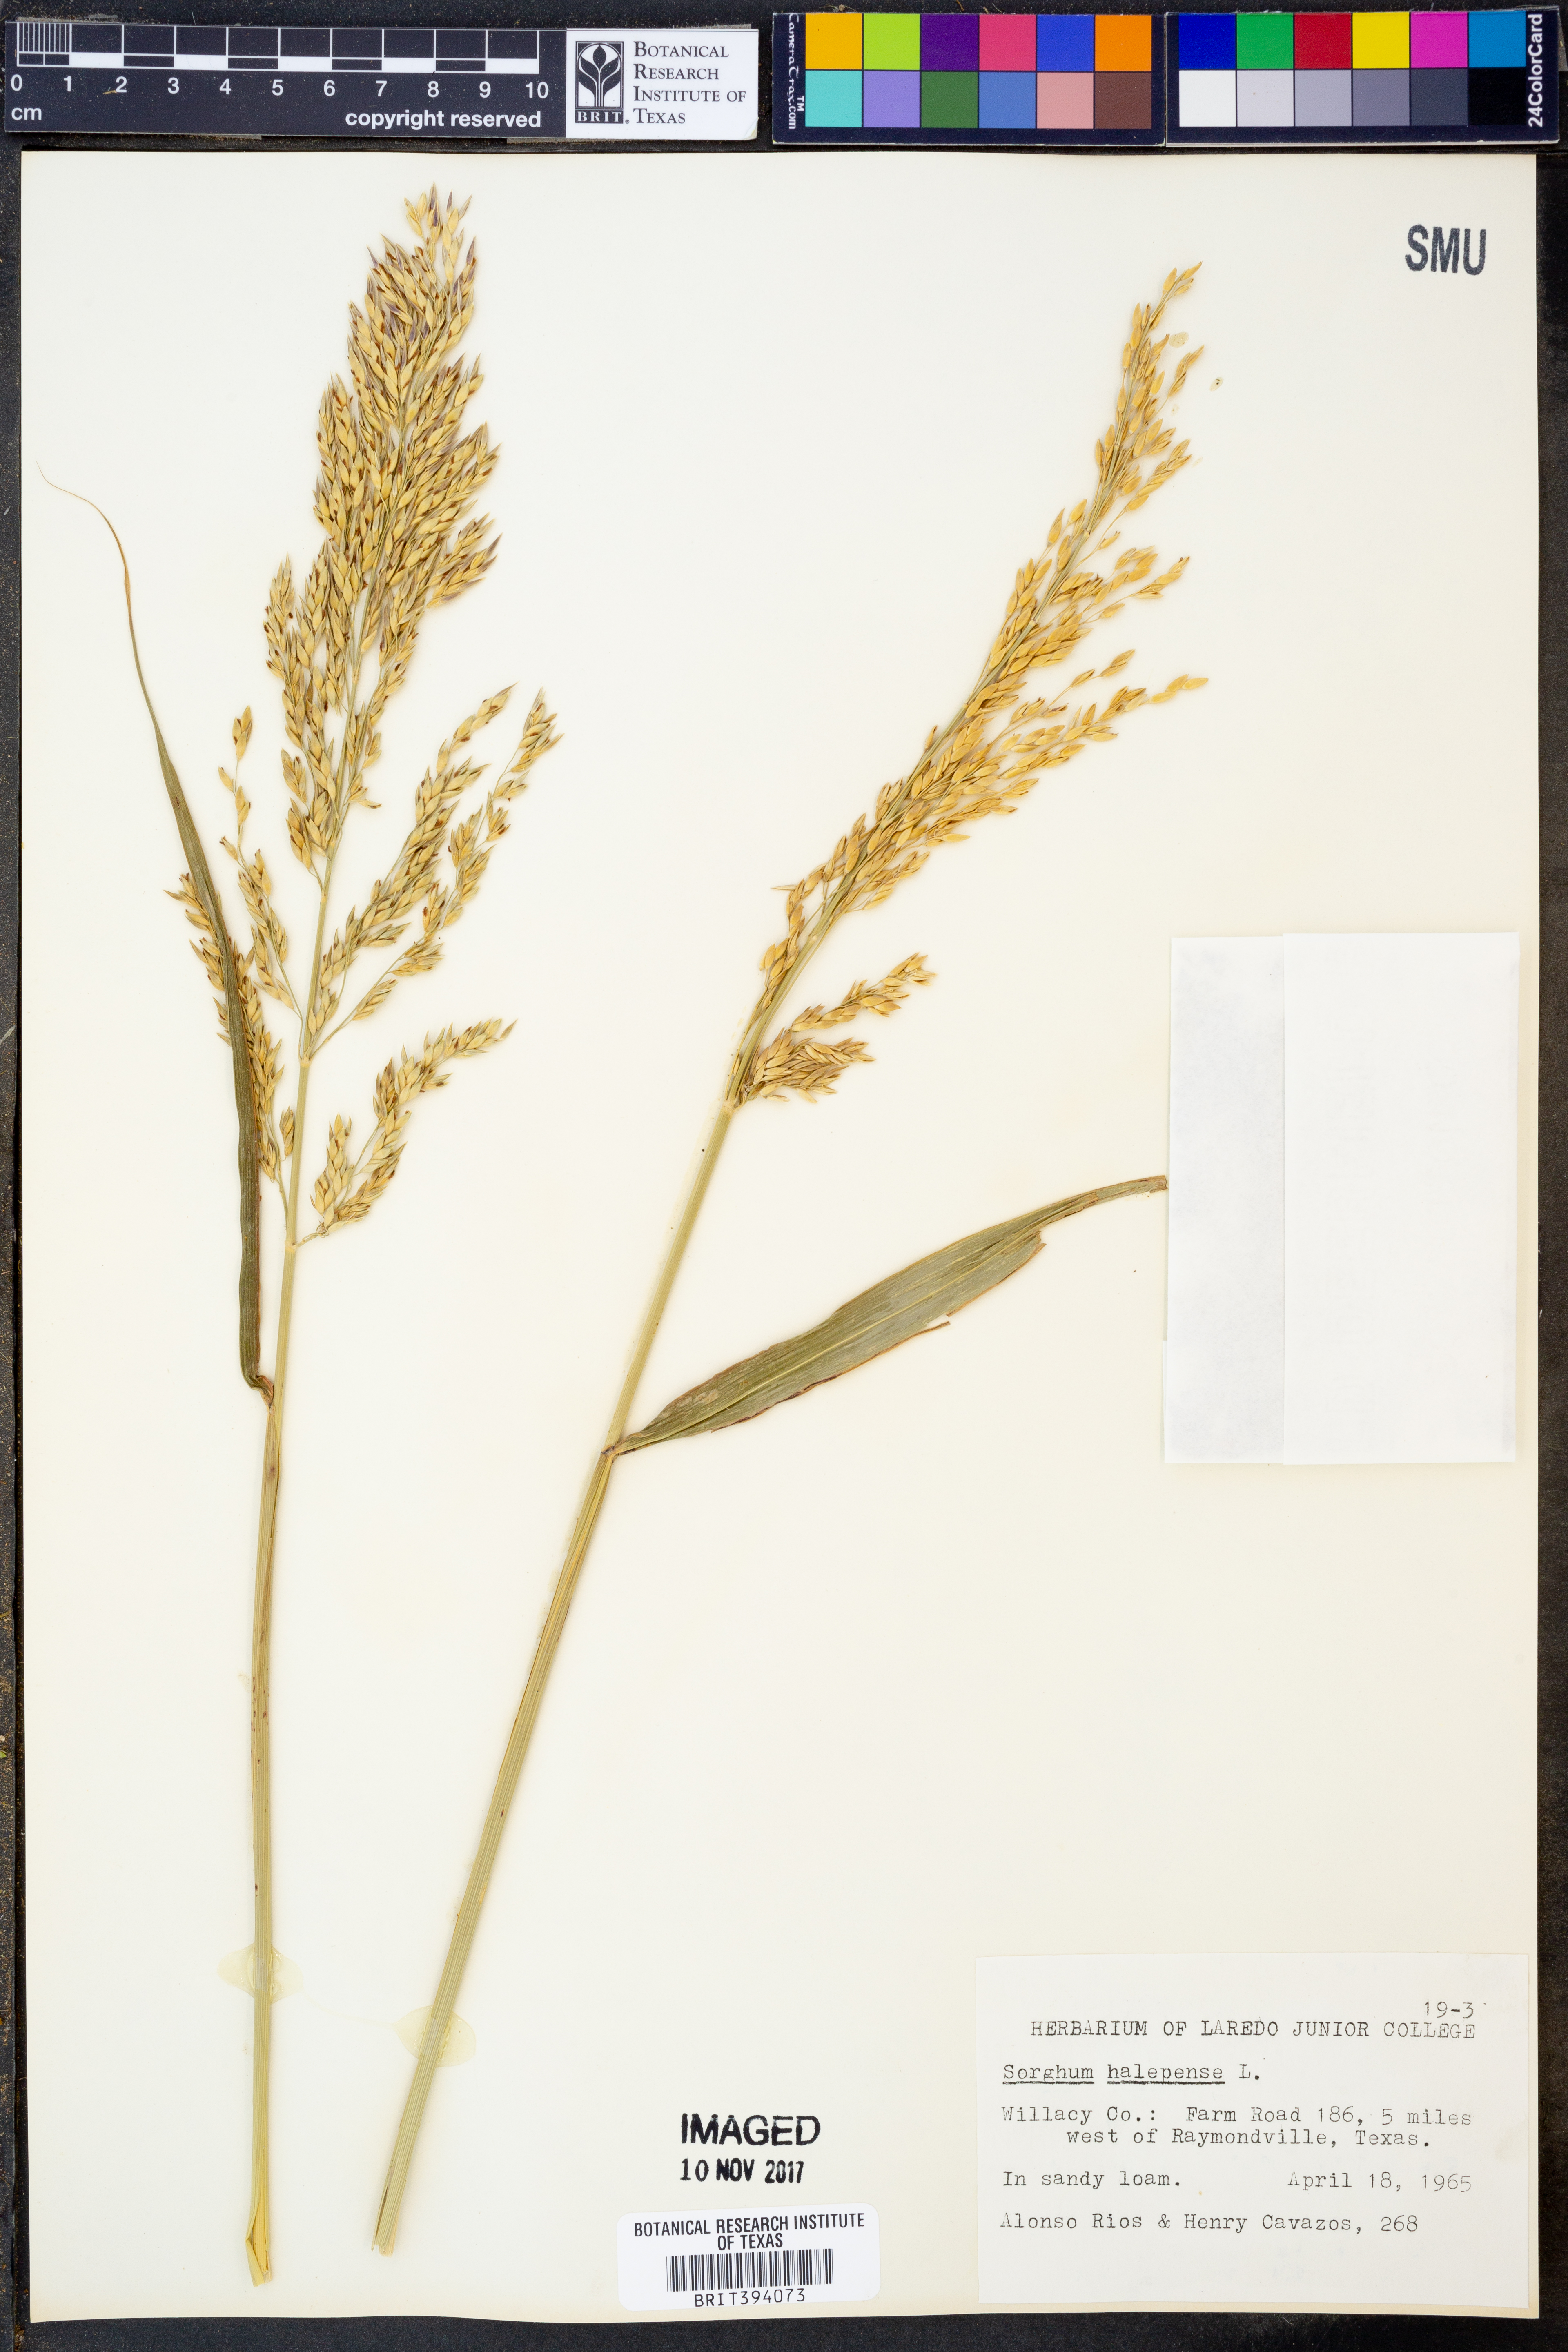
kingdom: Plantae
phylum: Tracheophyta
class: Liliopsida
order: Poales
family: Poaceae
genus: Sorghum
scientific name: Sorghum halepense
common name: Johnson-grass
